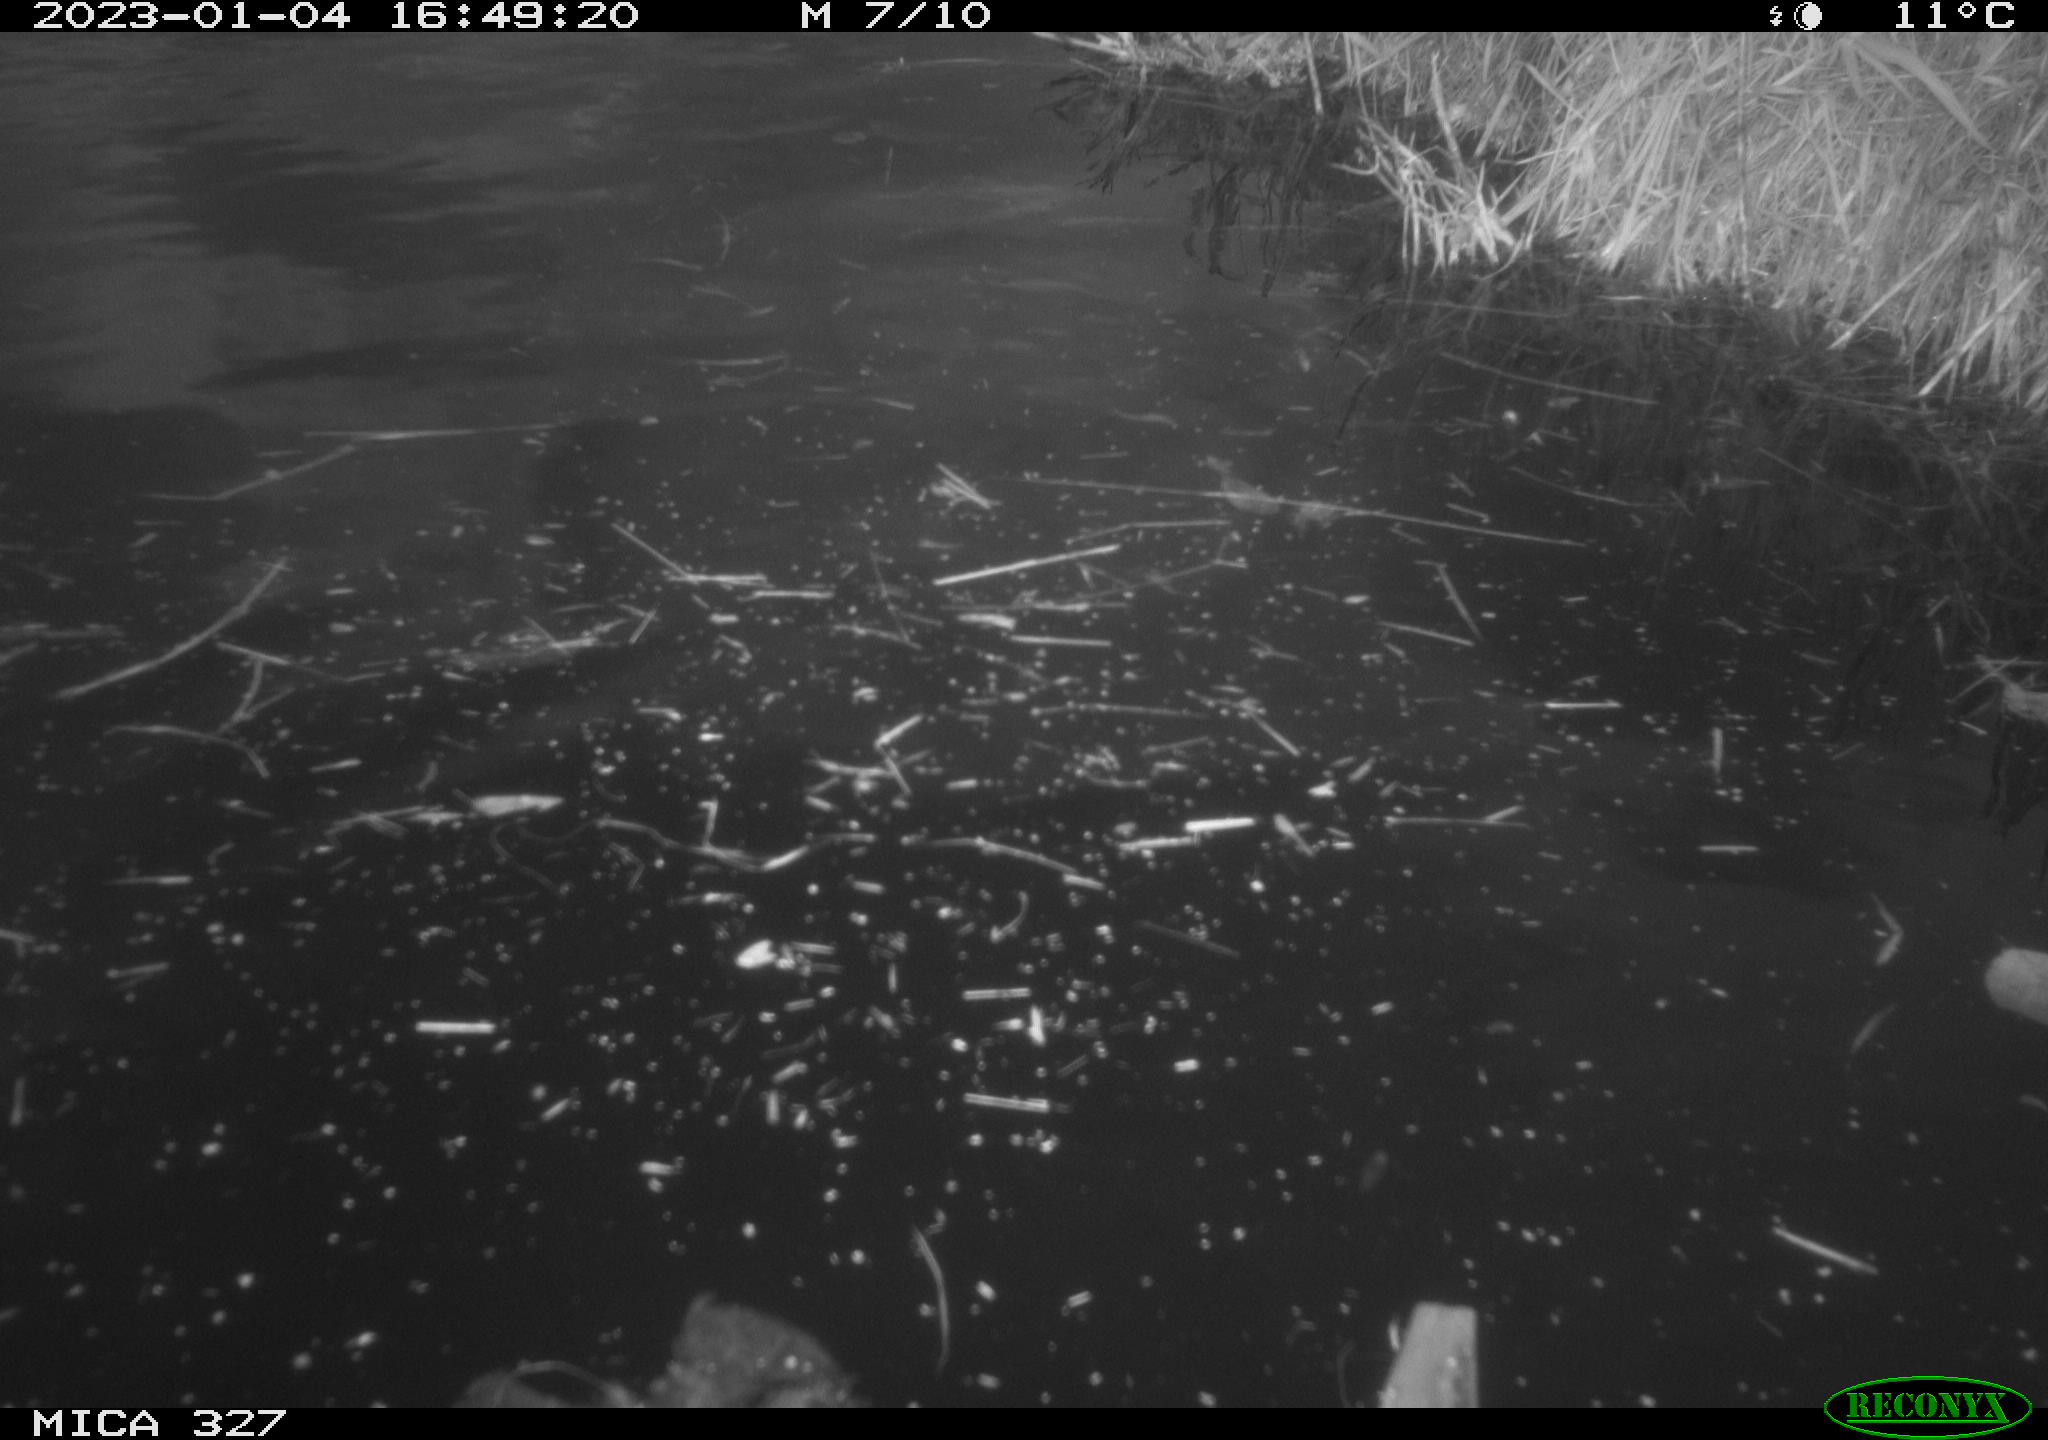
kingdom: Animalia
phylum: Chordata
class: Aves
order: Gruiformes
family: Rallidae
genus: Gallinula
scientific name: Gallinula chloropus
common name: Common moorhen
